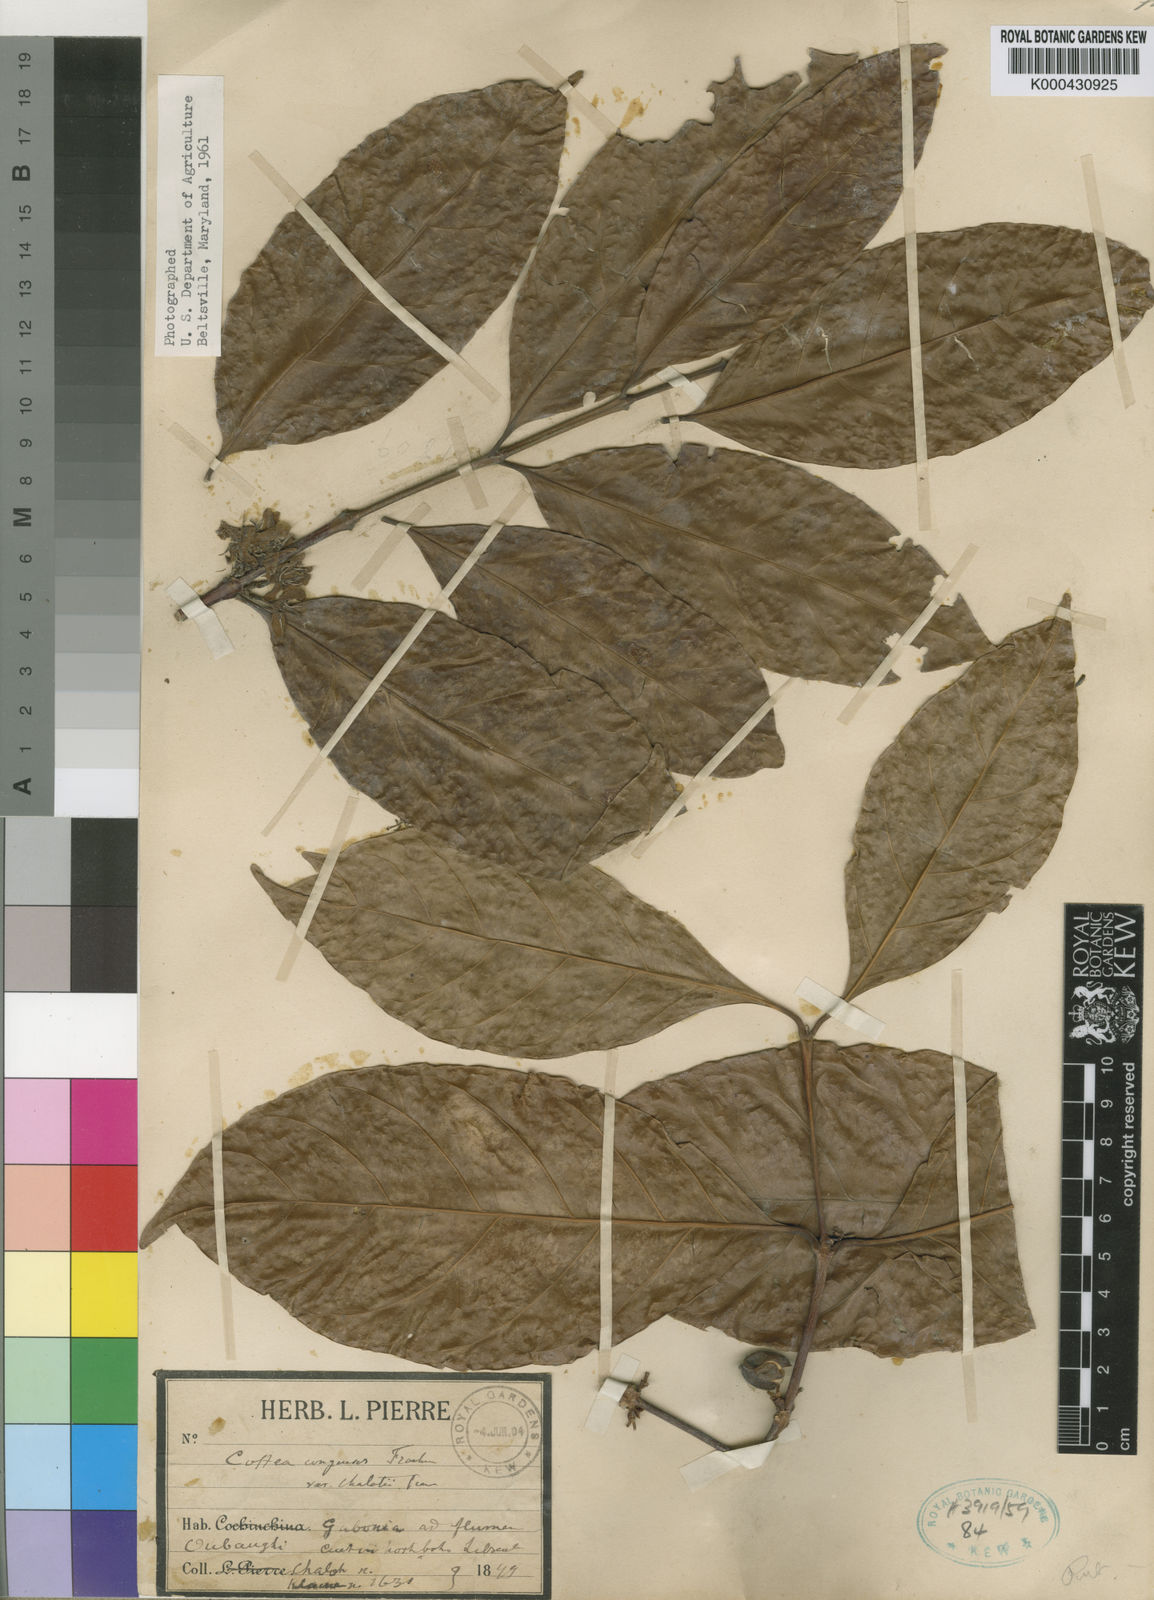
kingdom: Plantae
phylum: Tracheophyta
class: Magnoliopsida
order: Gentianales
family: Rubiaceae
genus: Coffea
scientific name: Coffea congensis
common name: Congo coffee
